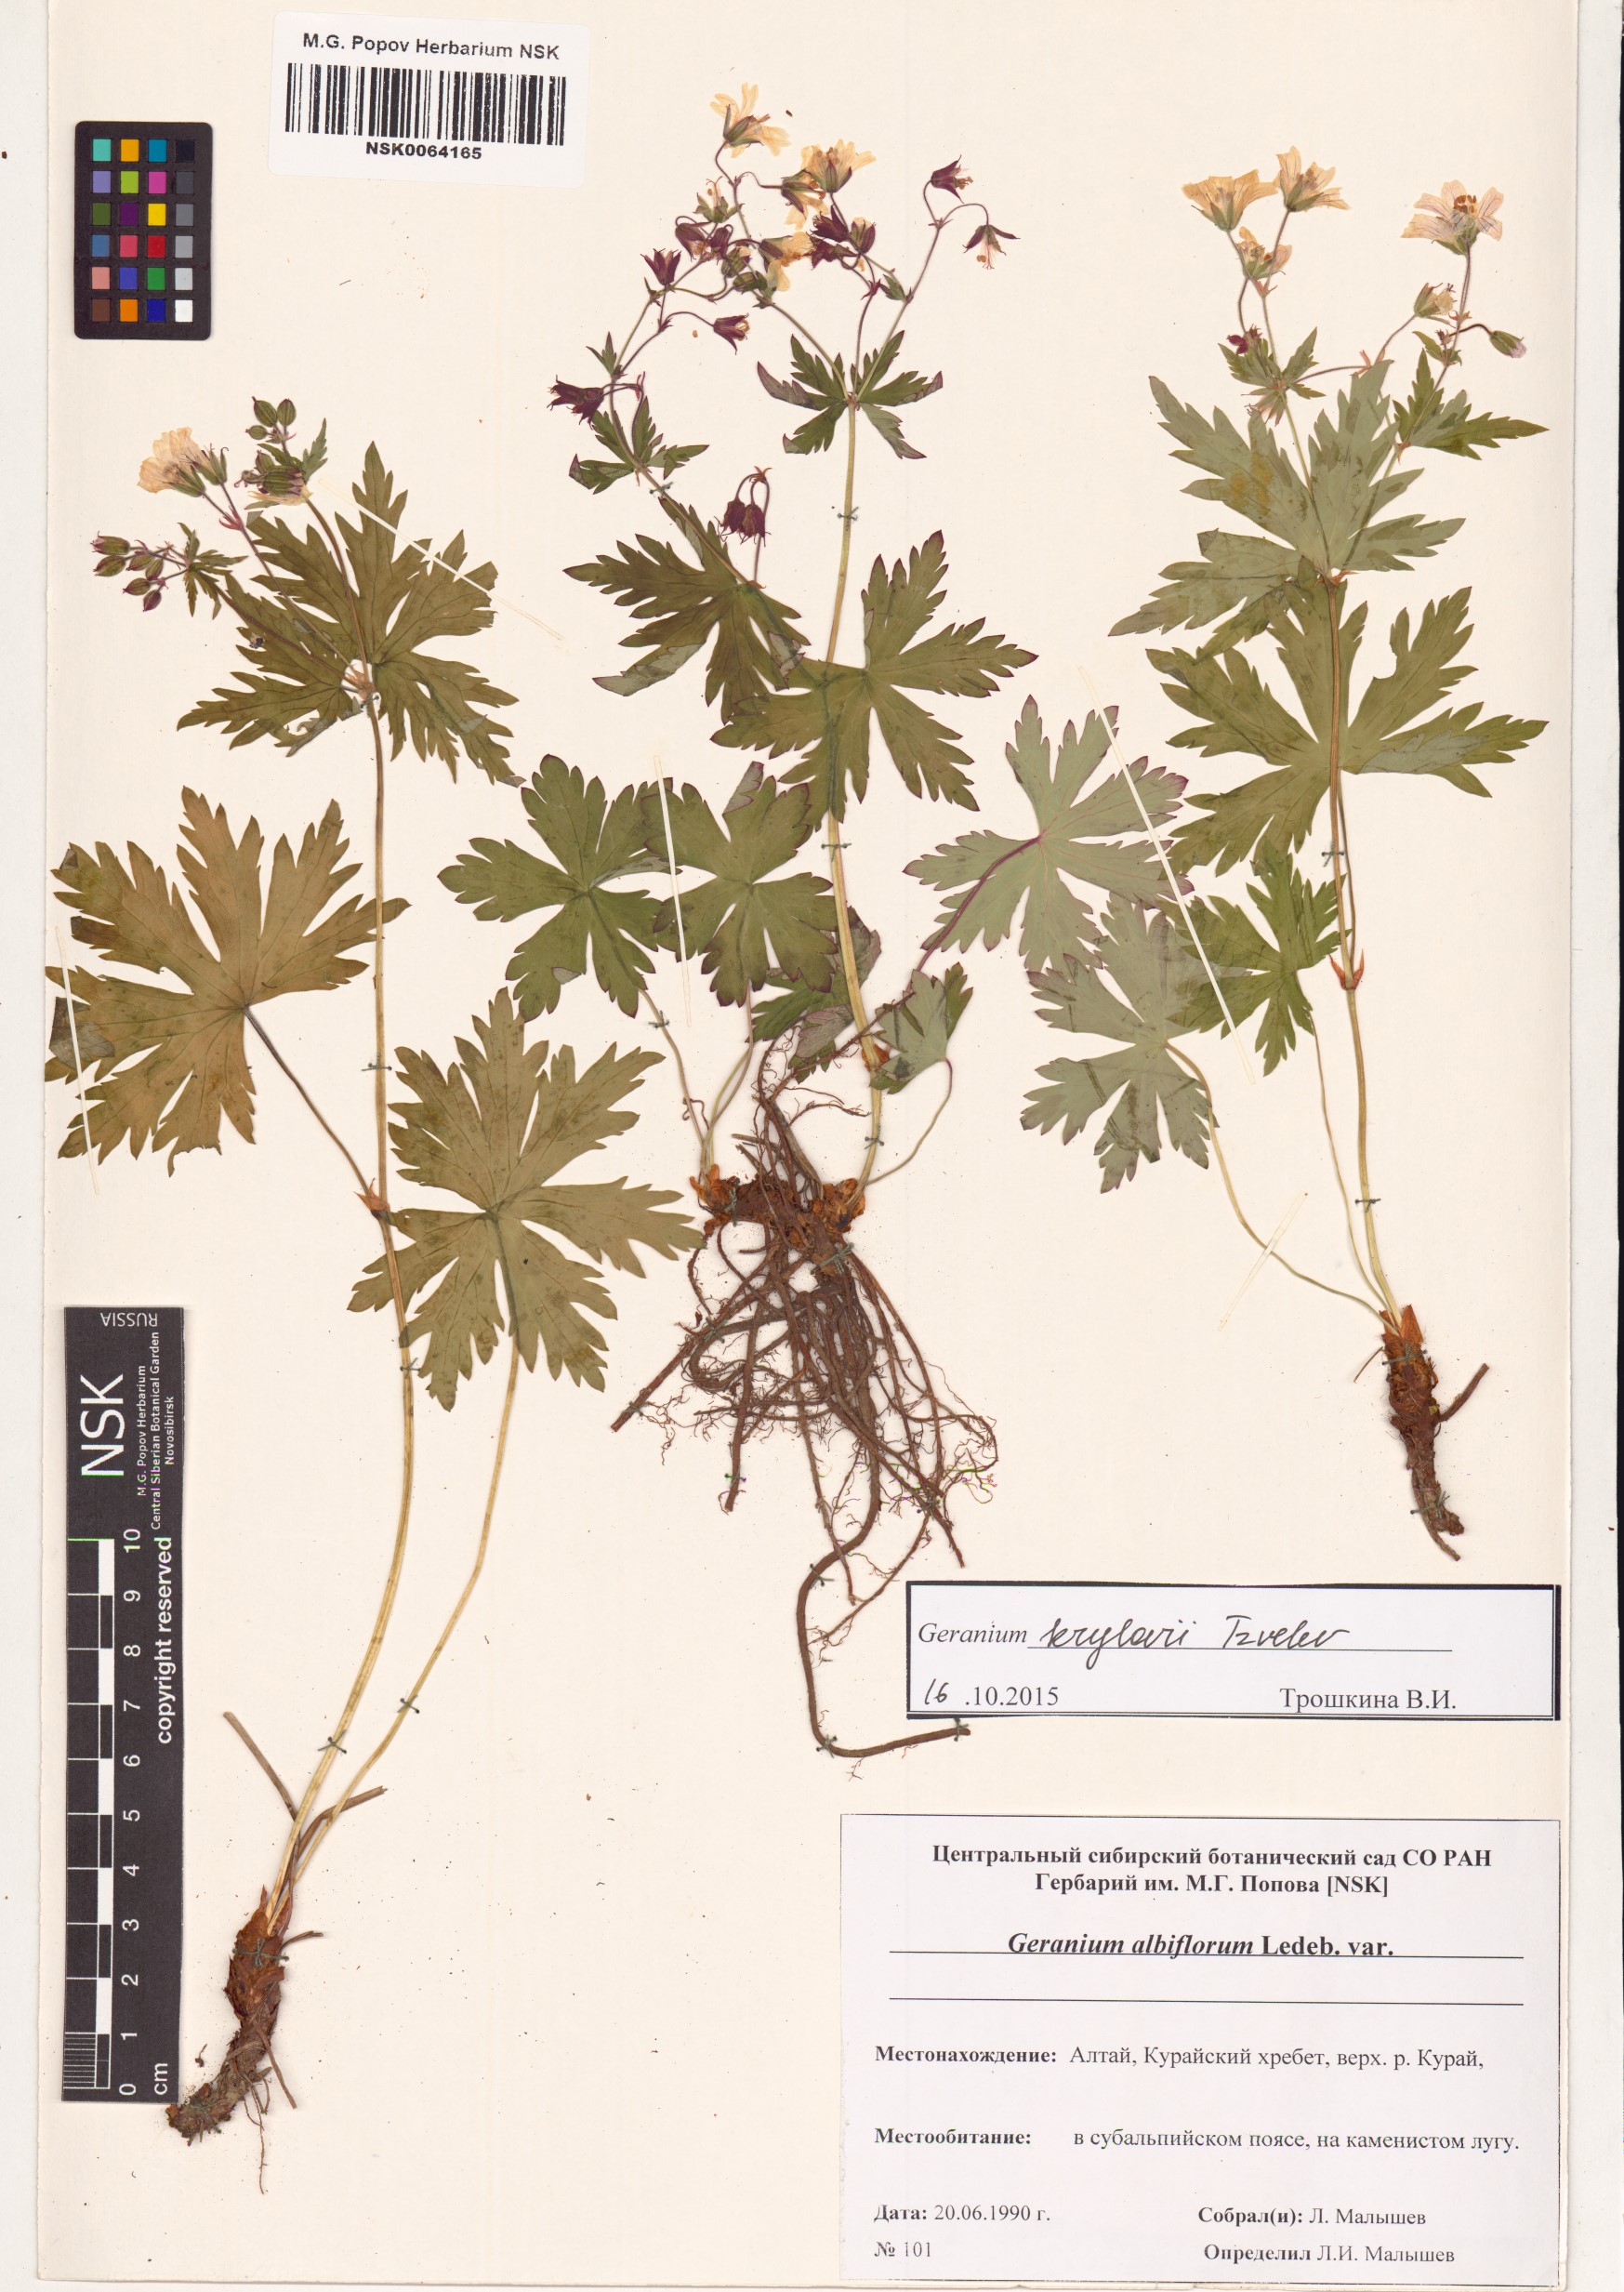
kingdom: Plantae
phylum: Tracheophyta
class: Magnoliopsida
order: Geraniales
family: Geraniaceae
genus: Geranium
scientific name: Geranium sylvaticum
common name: Wood crane's-bill
